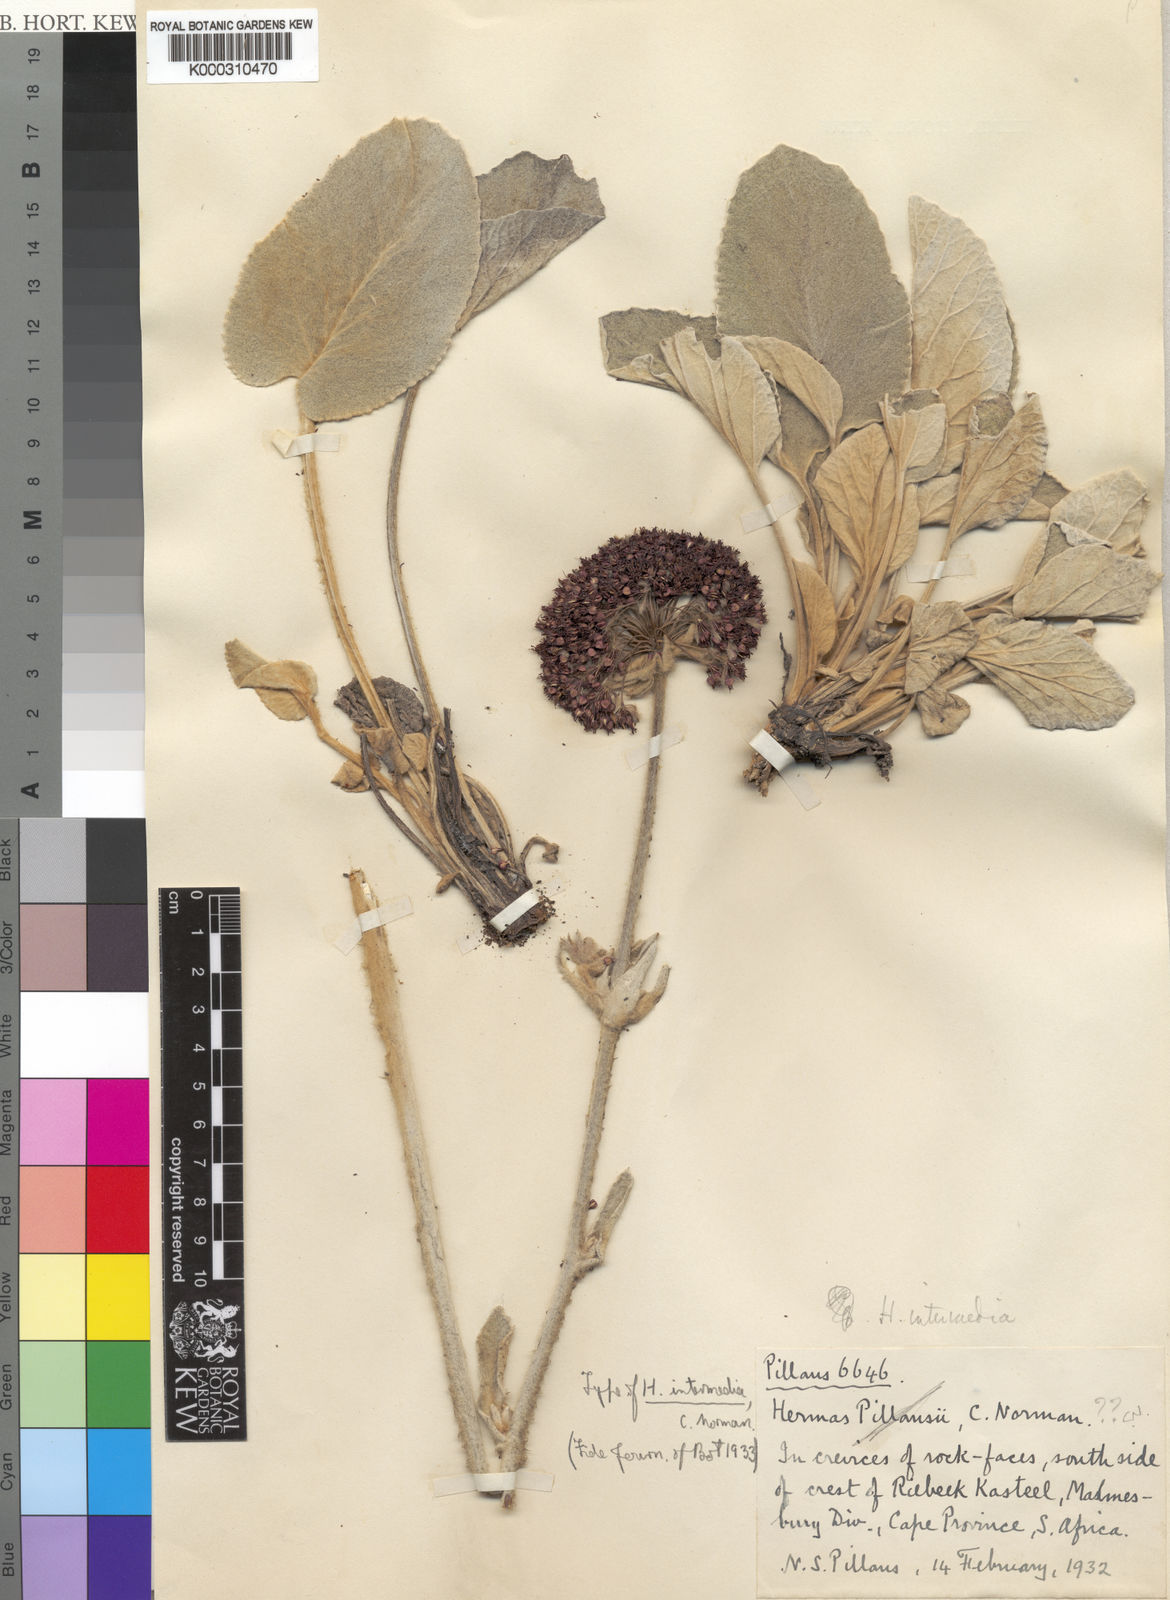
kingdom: Plantae
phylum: Tracheophyta
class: Magnoliopsida
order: Apiales
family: Apiaceae
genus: Hermas
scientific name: Hermas intermedia
